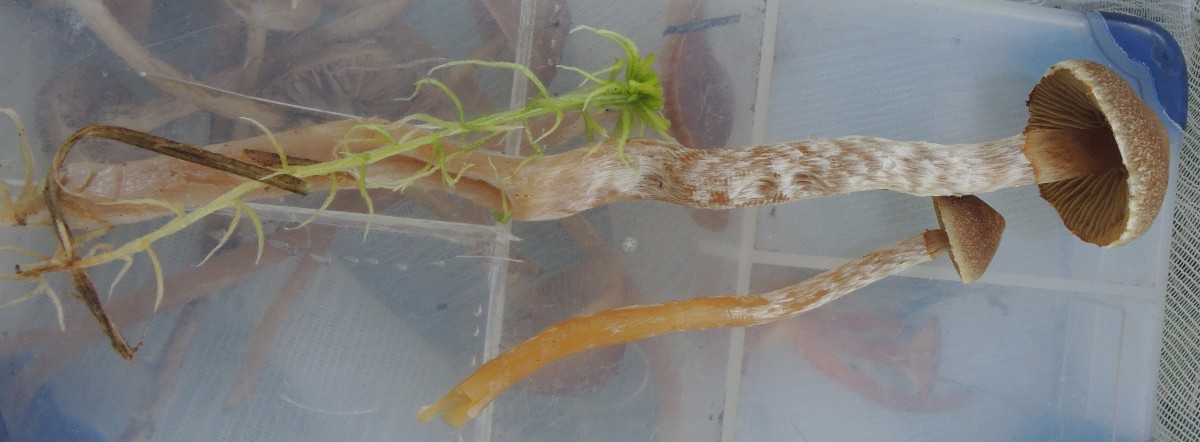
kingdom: Fungi
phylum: Basidiomycota
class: Agaricomycetes
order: Agaricales
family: Hymenogastraceae
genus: Galerina
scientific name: Galerina paludosa
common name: mose-hjelmhat
